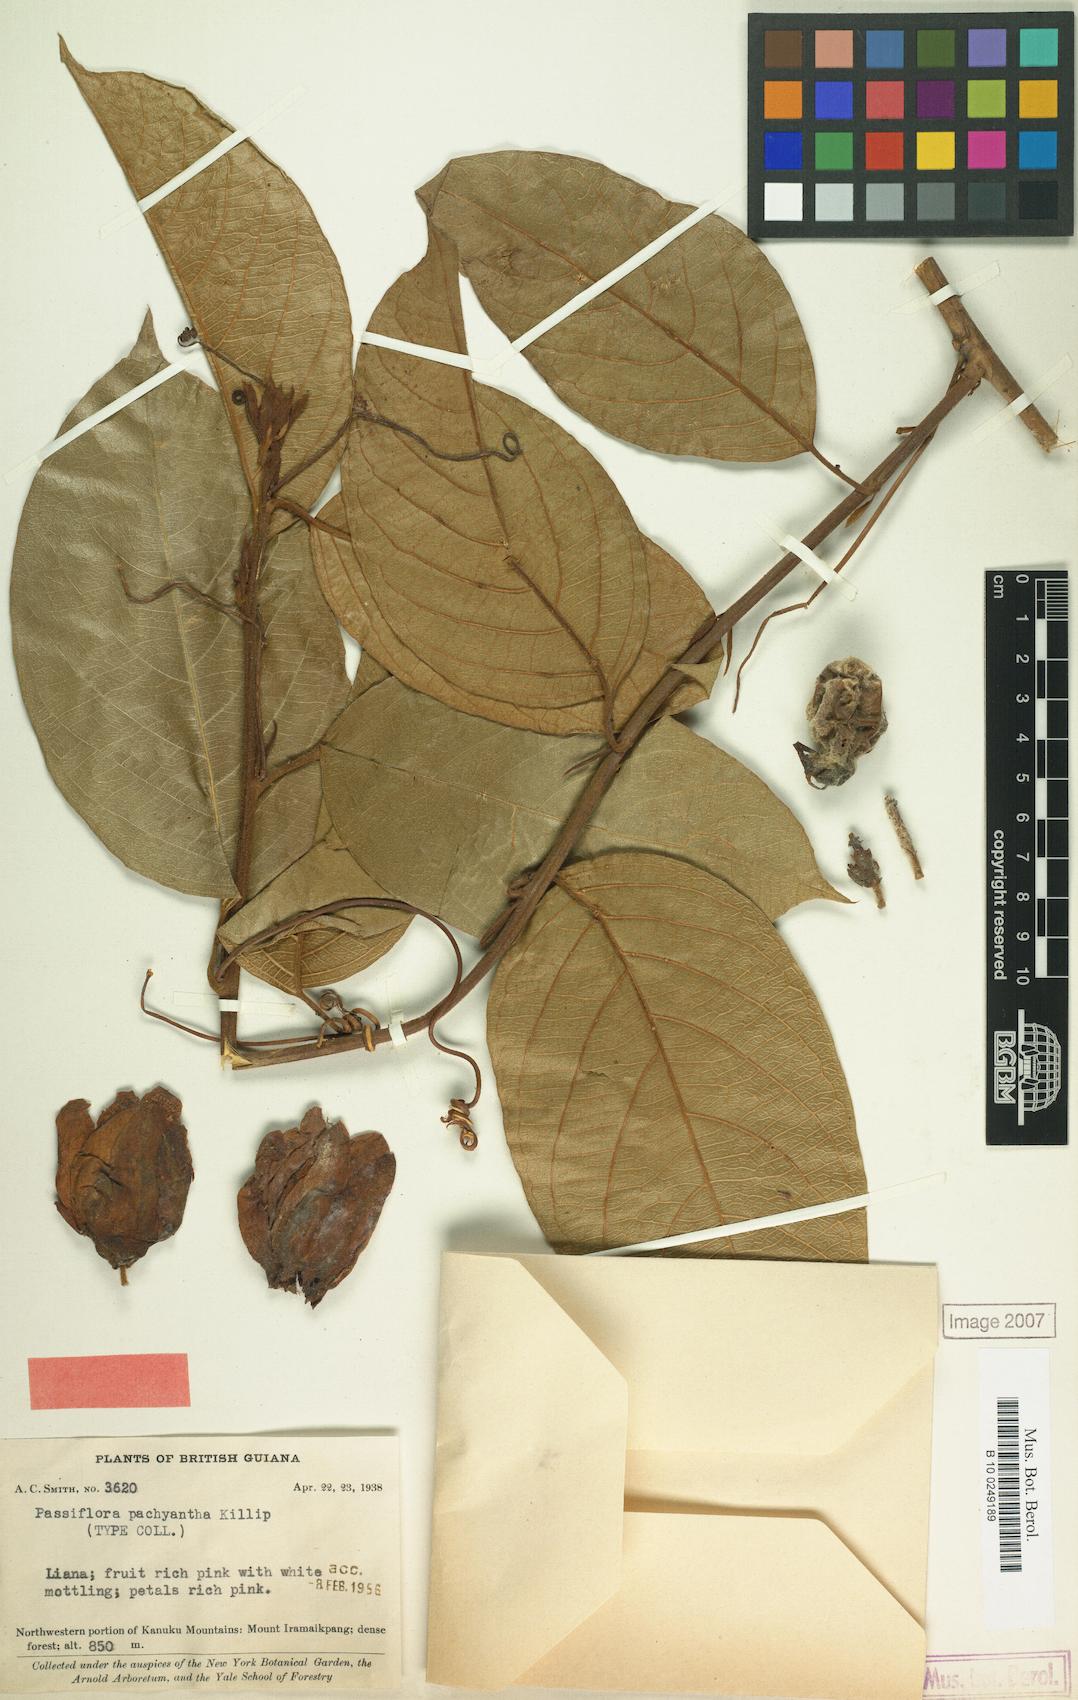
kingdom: Plantae
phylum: Tracheophyta
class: Magnoliopsida
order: Malpighiales
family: Passifloraceae
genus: Passiflora
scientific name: Passiflora pachyantha
